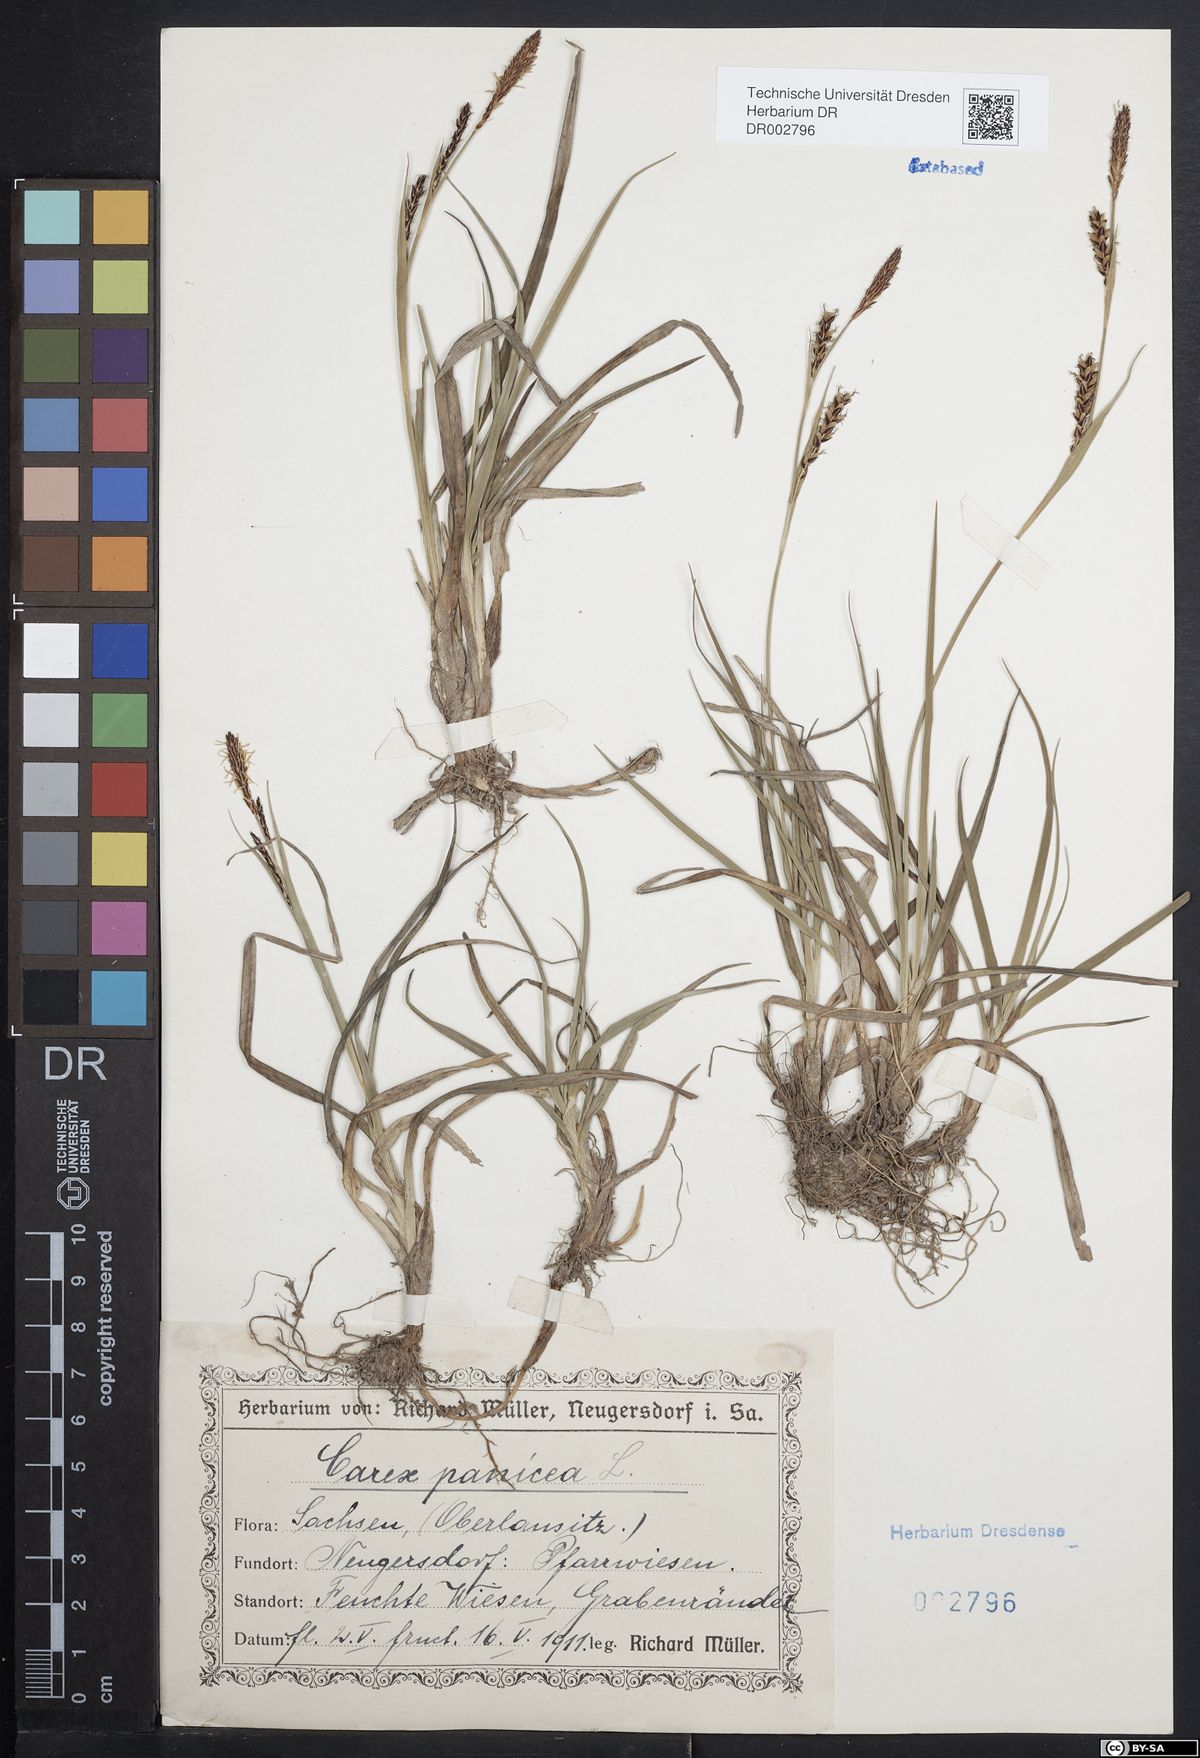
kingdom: Plantae
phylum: Tracheophyta
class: Liliopsida
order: Poales
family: Cyperaceae
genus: Carex
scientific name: Carex panicea
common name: Carnation sedge
